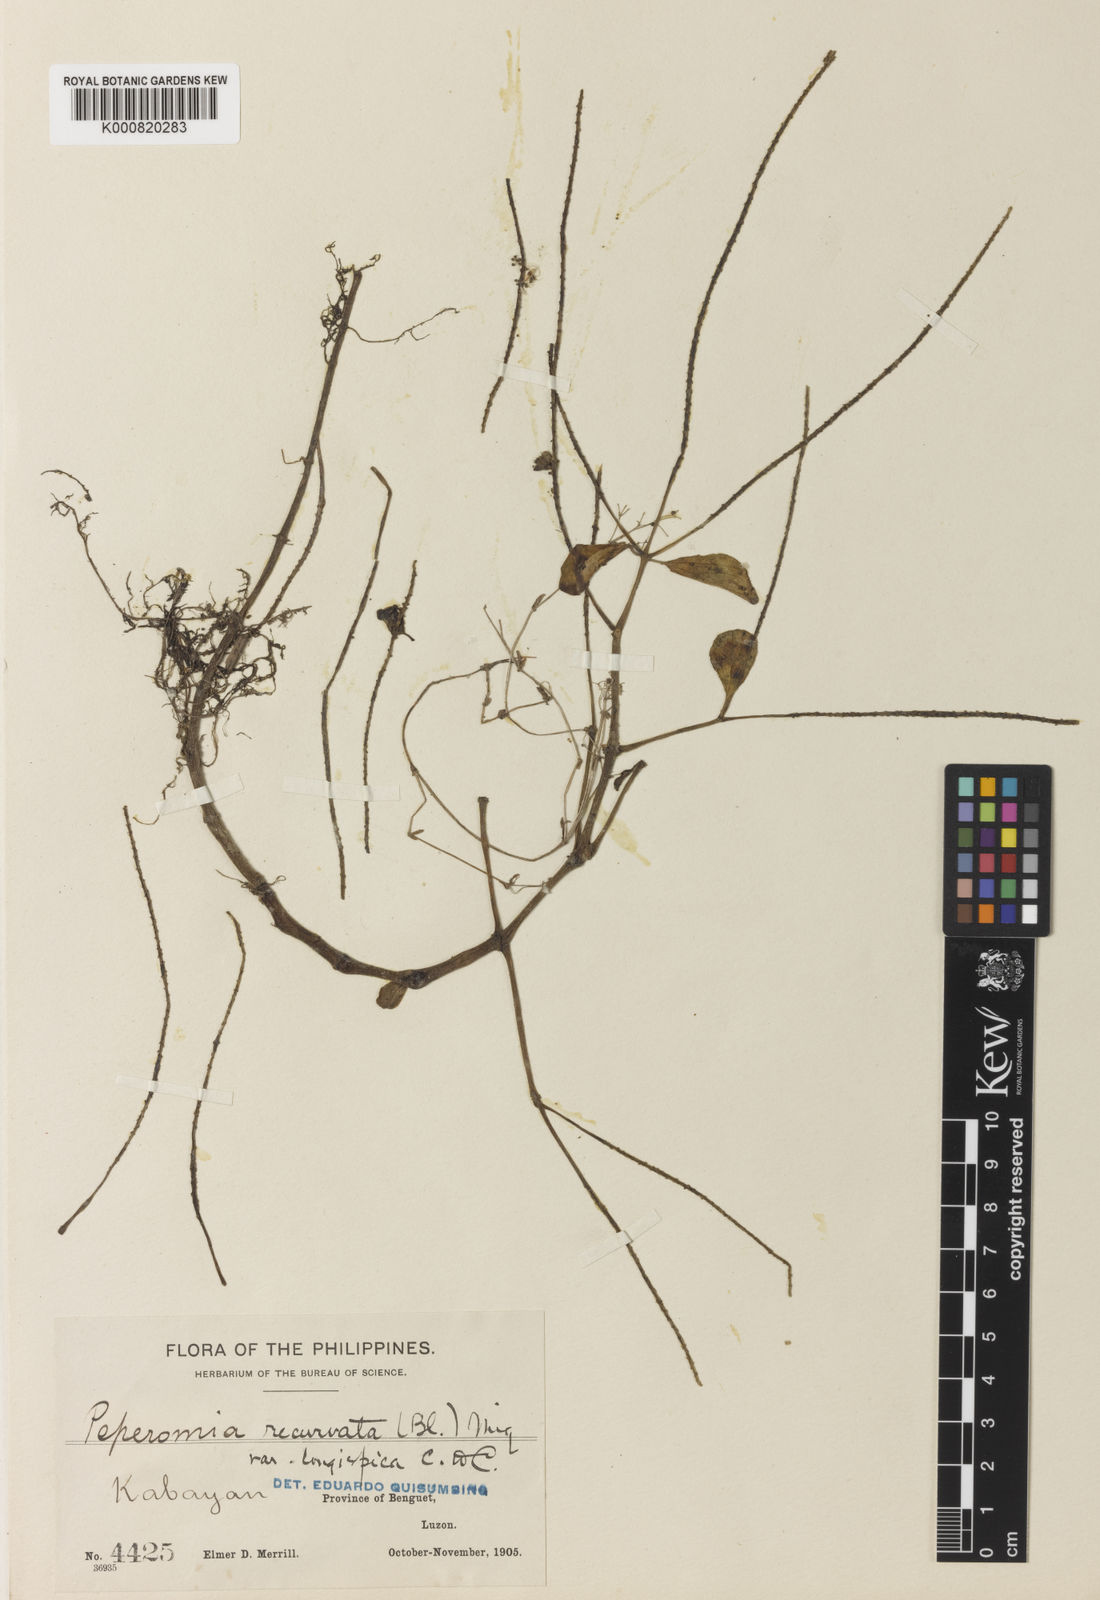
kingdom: Plantae
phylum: Tracheophyta
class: Magnoliopsida
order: Piperales
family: Piperaceae
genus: Peperomia
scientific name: Peperomia recurvata
